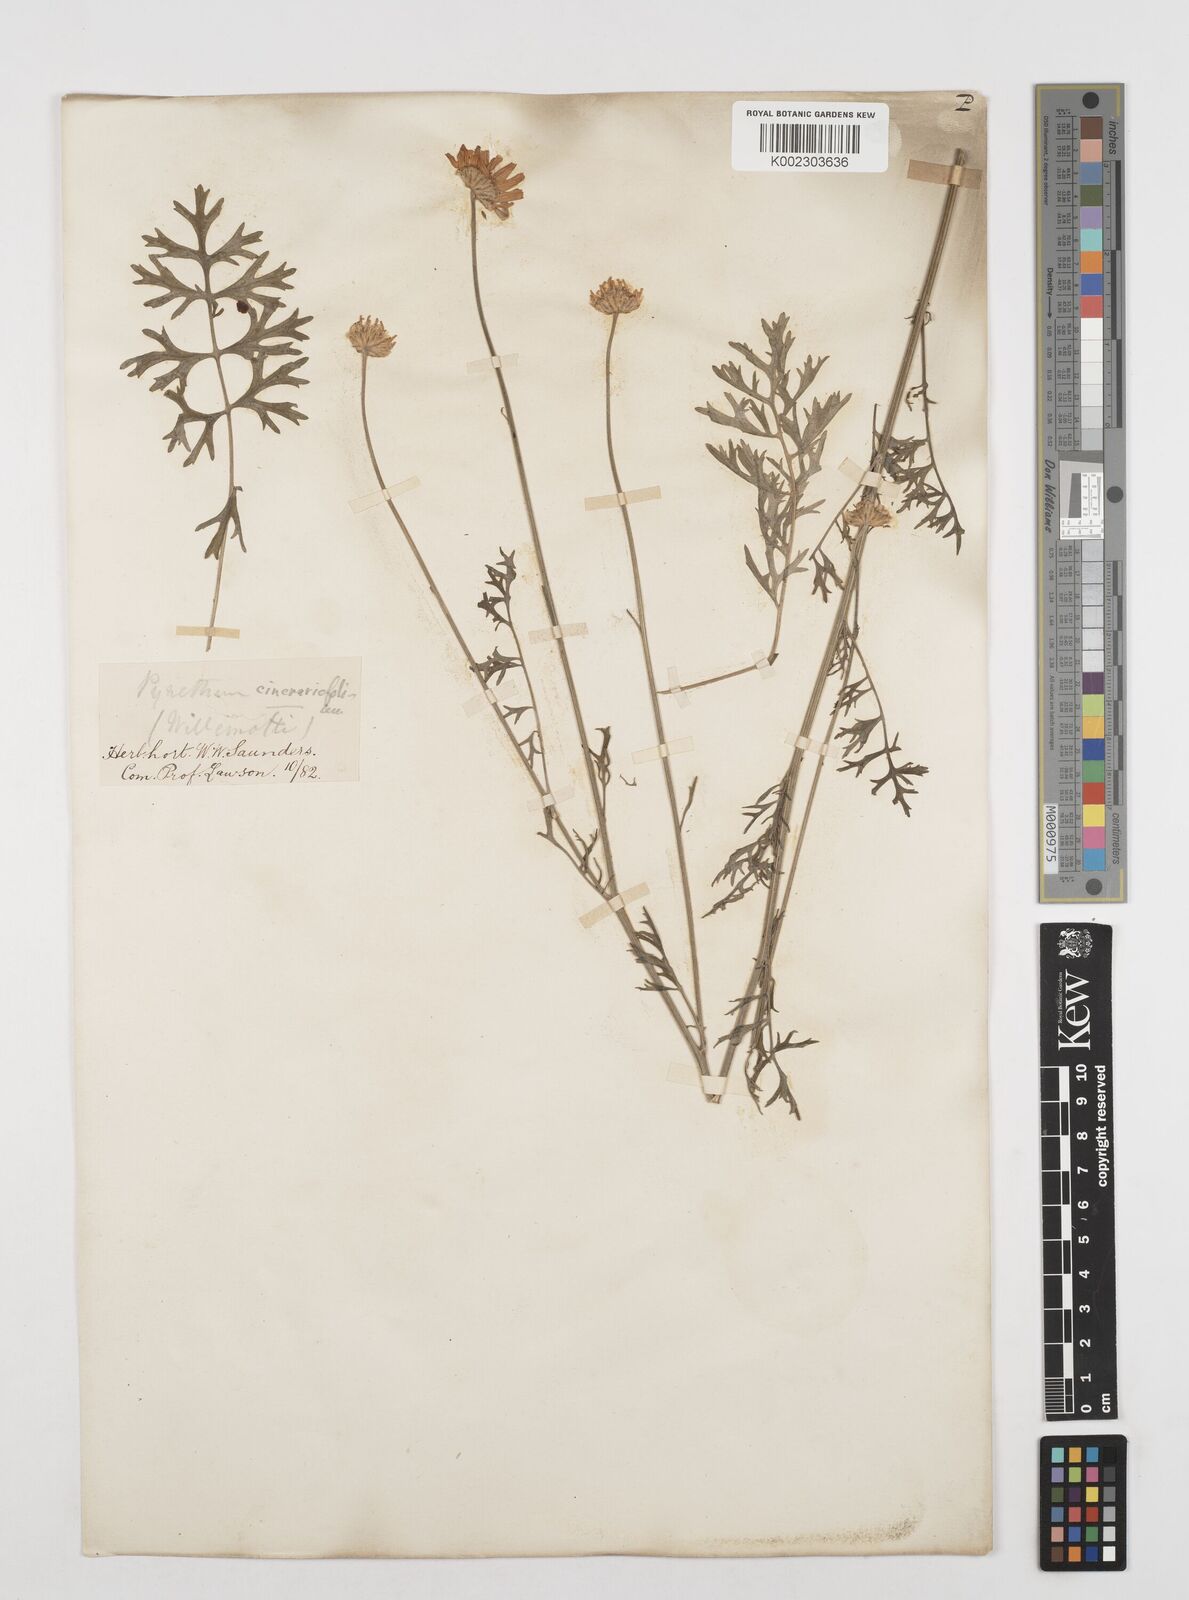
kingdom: Plantae
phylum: Tracheophyta
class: Magnoliopsida
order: Asterales
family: Asteraceae
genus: Tanacetum
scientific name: Tanacetum cinerariifolium
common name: Dalmatian pyrethrum
